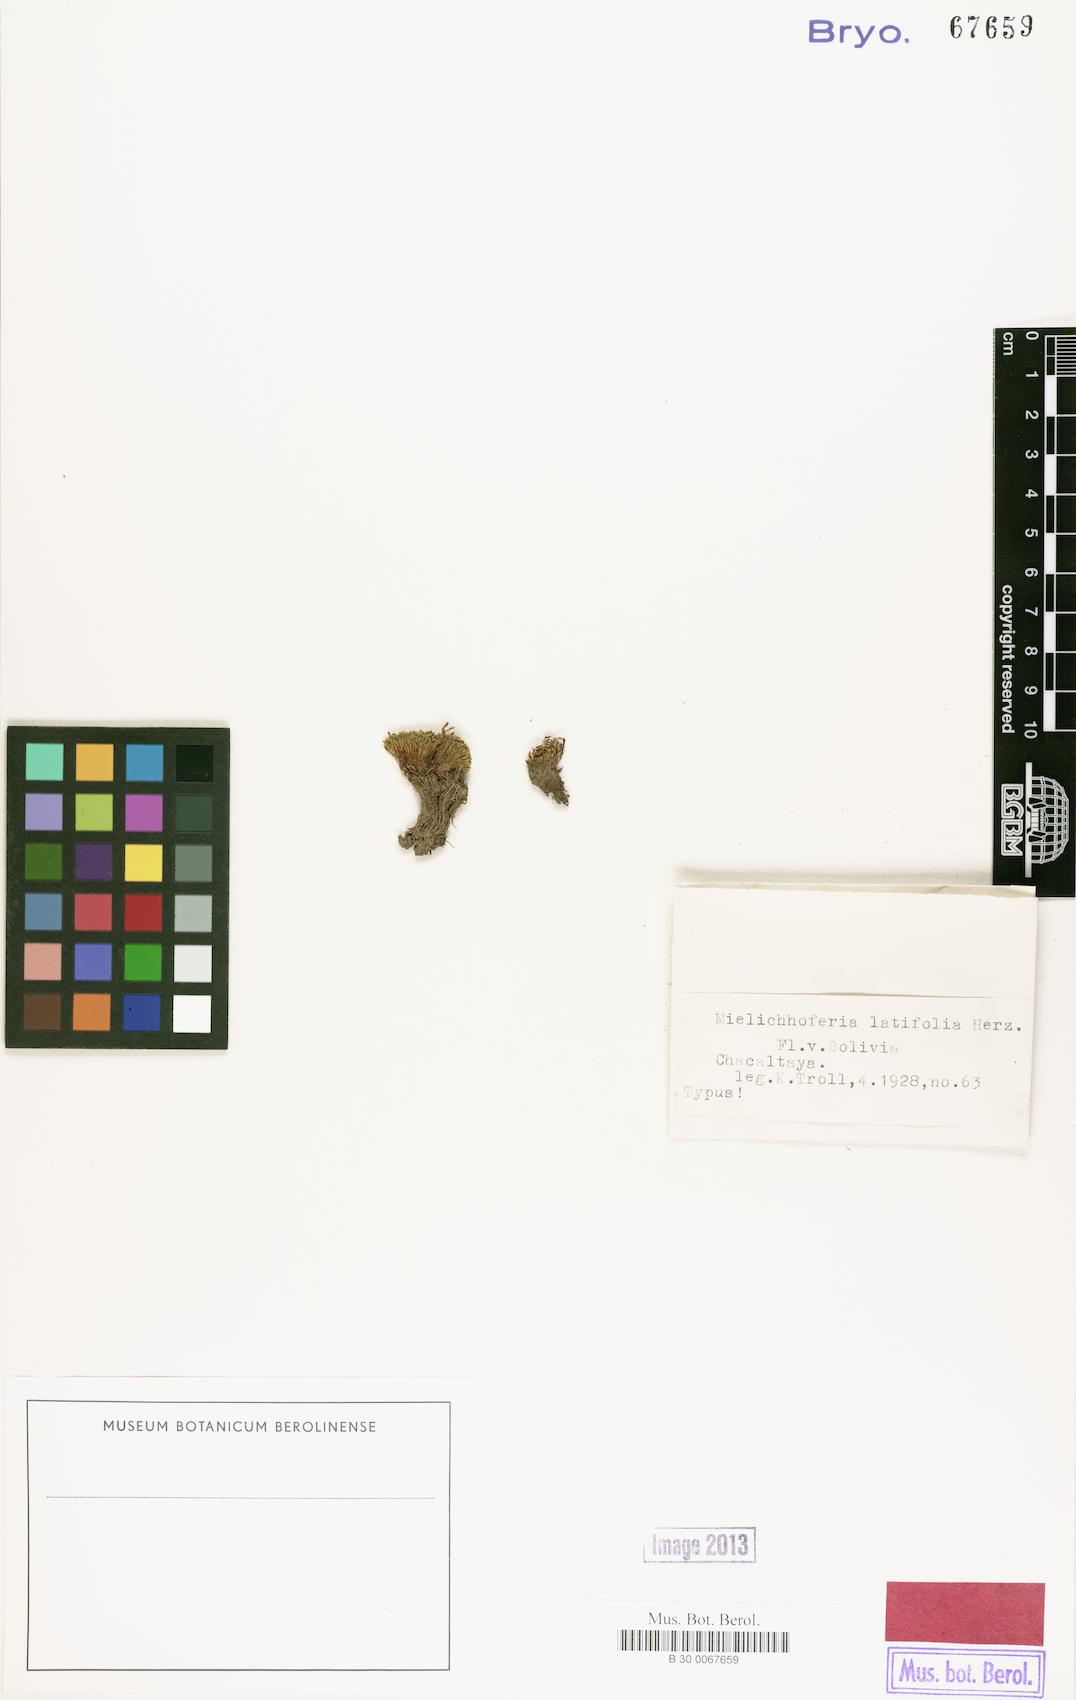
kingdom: Plantae
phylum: Bryophyta
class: Bryopsida
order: Bryales
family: Mniaceae
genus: Schizymenium
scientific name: Schizymenium latifolium
